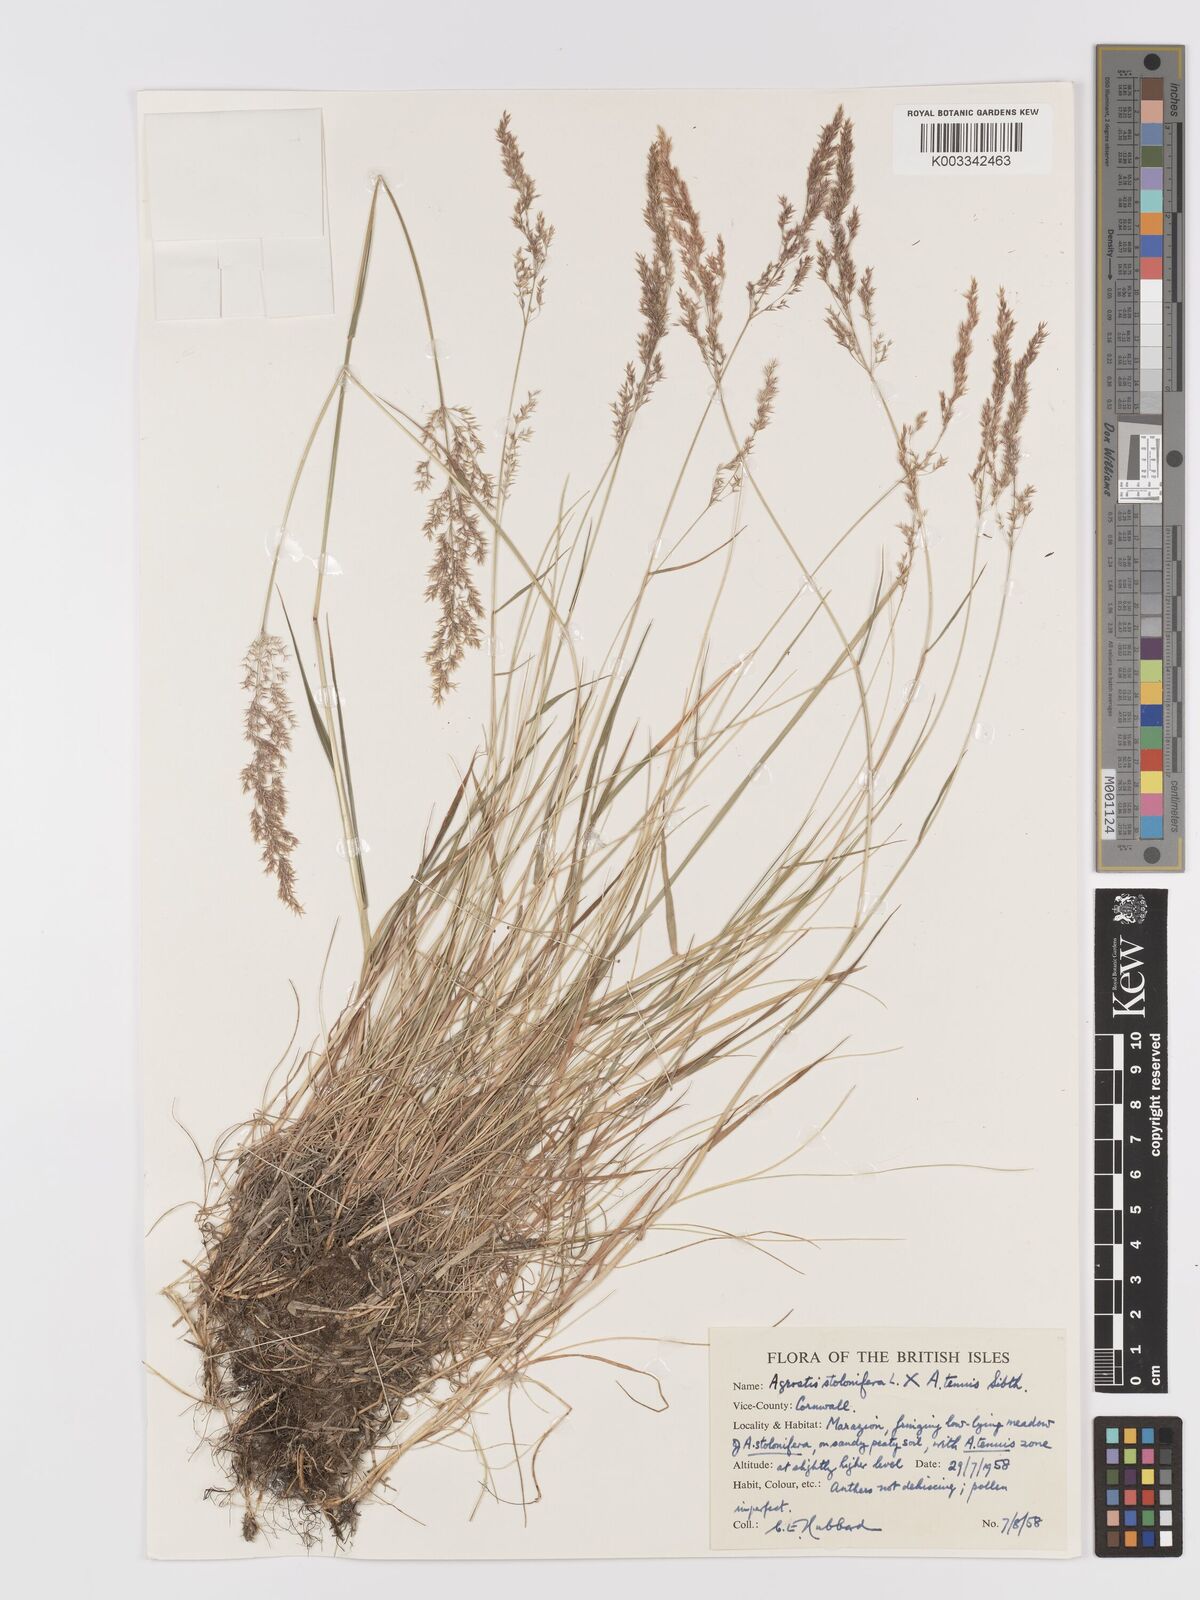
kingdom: Plantae
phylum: Tracheophyta
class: Liliopsida
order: Poales
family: Poaceae
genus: Agrostis
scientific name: Agrostis capillaris
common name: Colonial bentgrass
